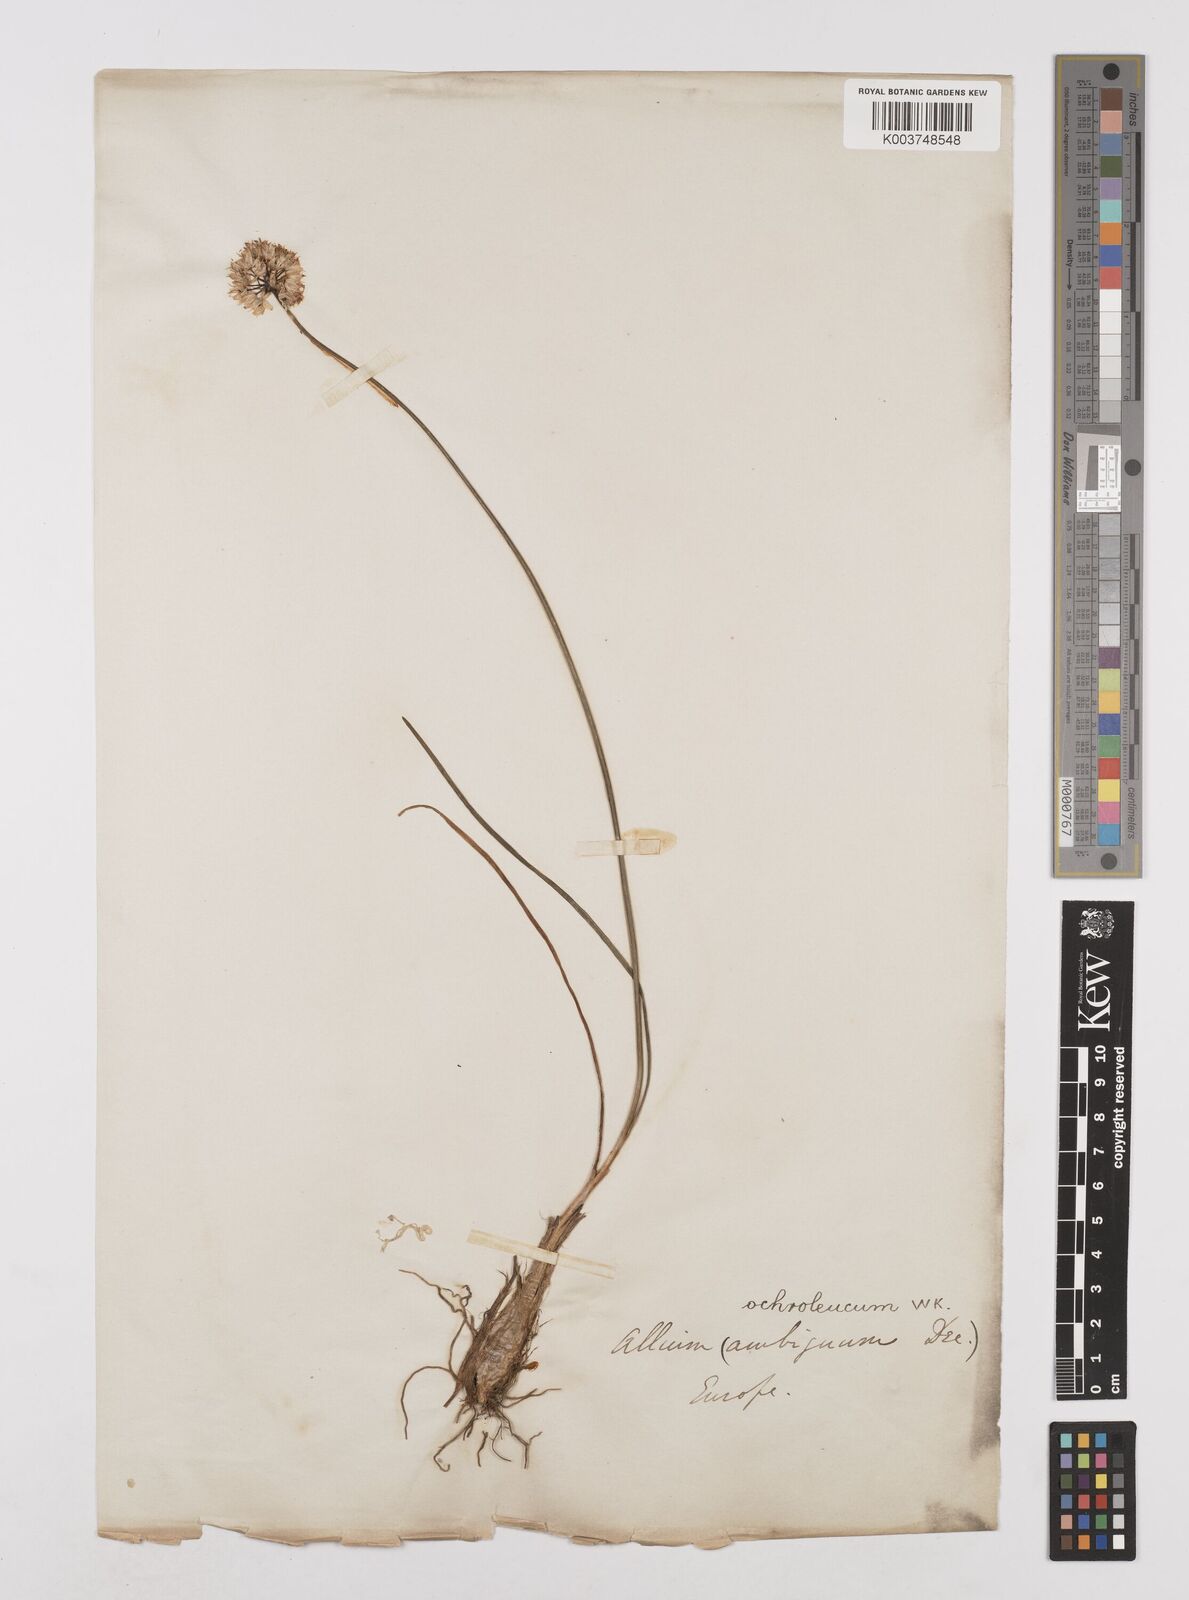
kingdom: Plantae
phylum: Tracheophyta
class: Liliopsida
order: Asparagales
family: Amaryllidaceae
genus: Allium
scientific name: Allium ericetorum
